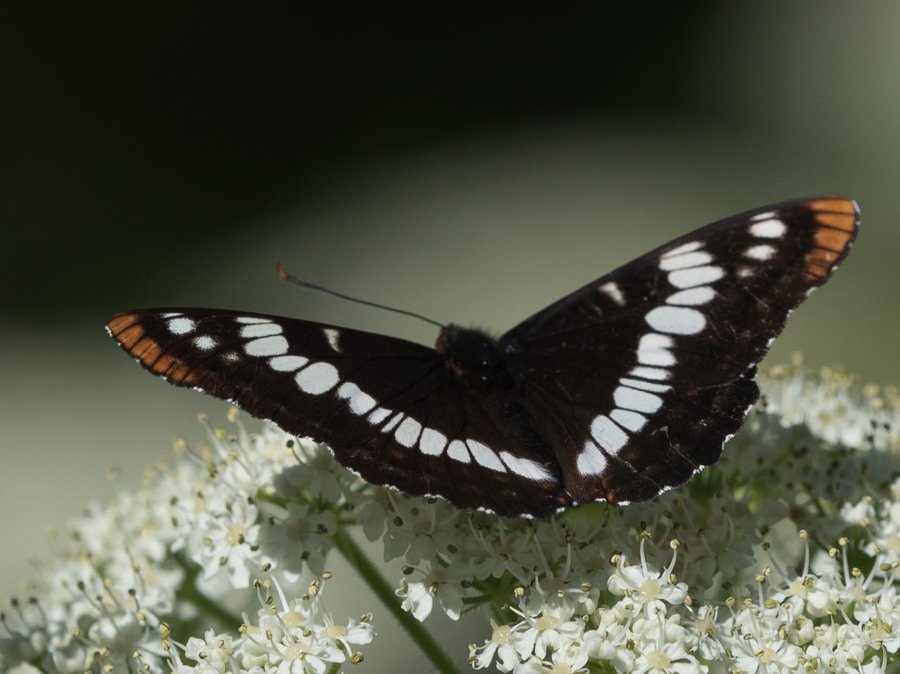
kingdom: Animalia
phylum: Arthropoda
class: Insecta
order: Lepidoptera
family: Nymphalidae
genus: Limenitis
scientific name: Limenitis lorquini
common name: Lorquin's Admiral
